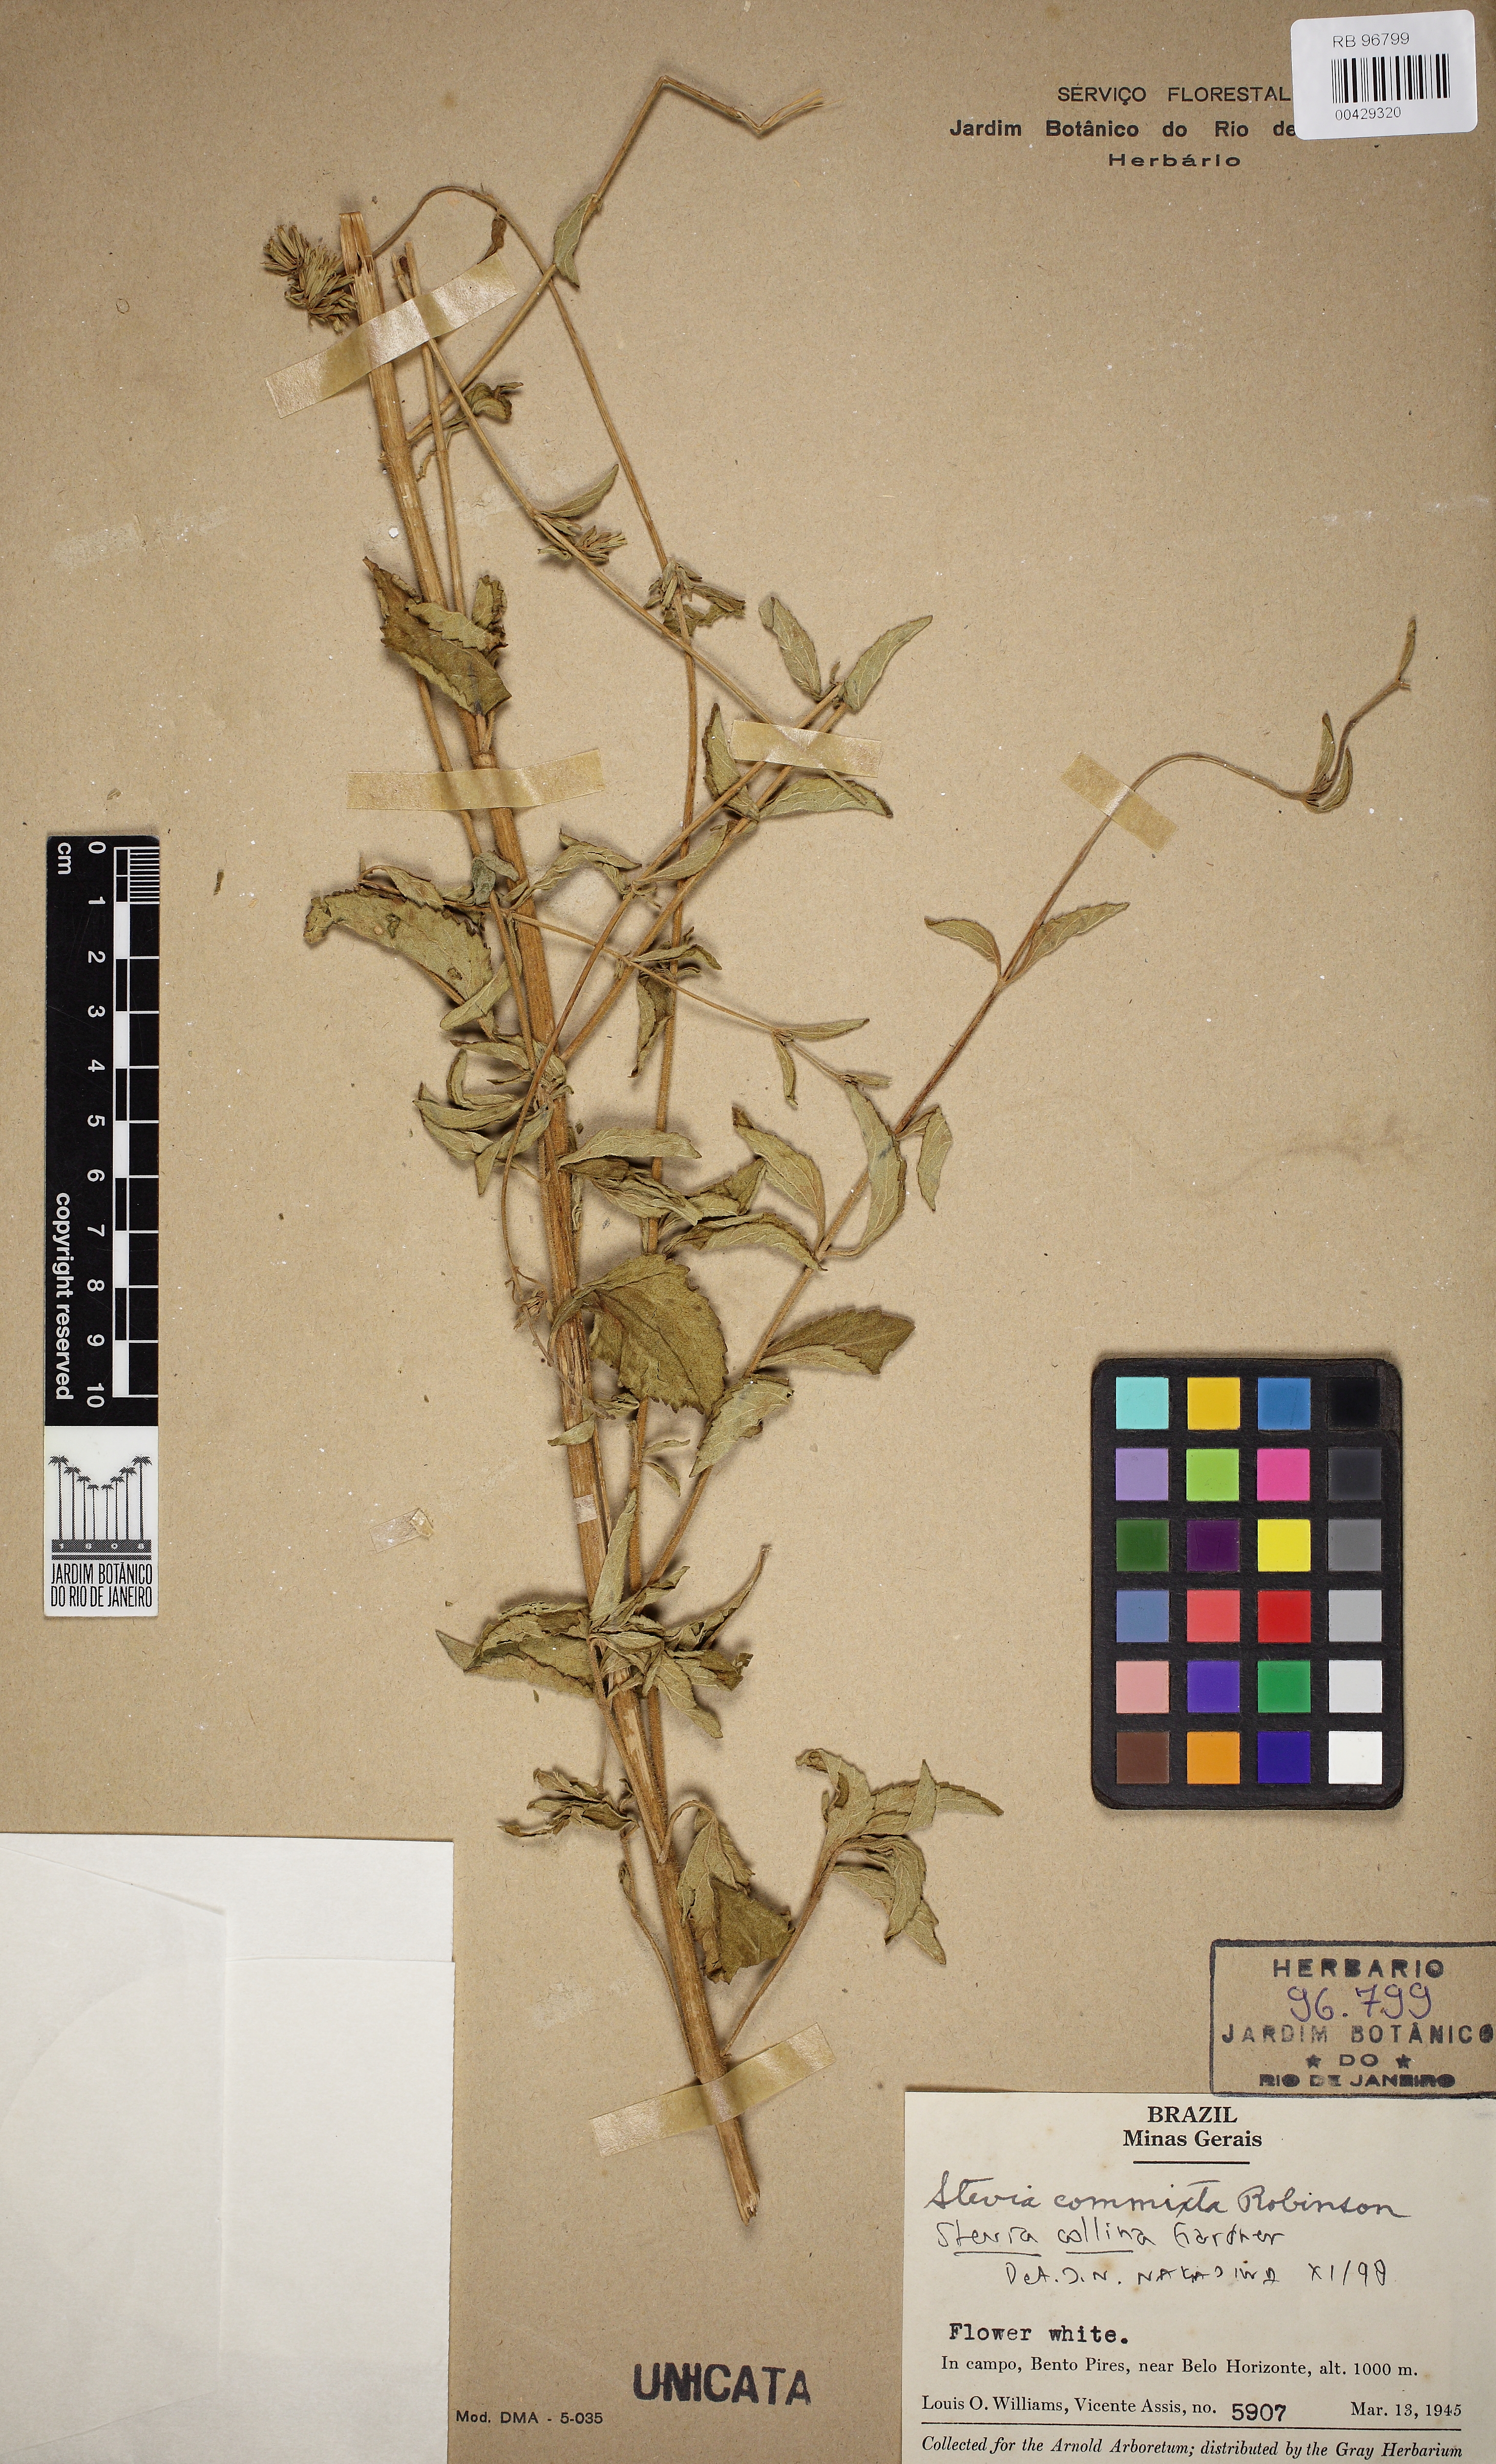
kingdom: Plantae
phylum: Tracheophyta
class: Magnoliopsida
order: Asterales
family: Asteraceae
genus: Stevia
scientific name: Stevia collina
